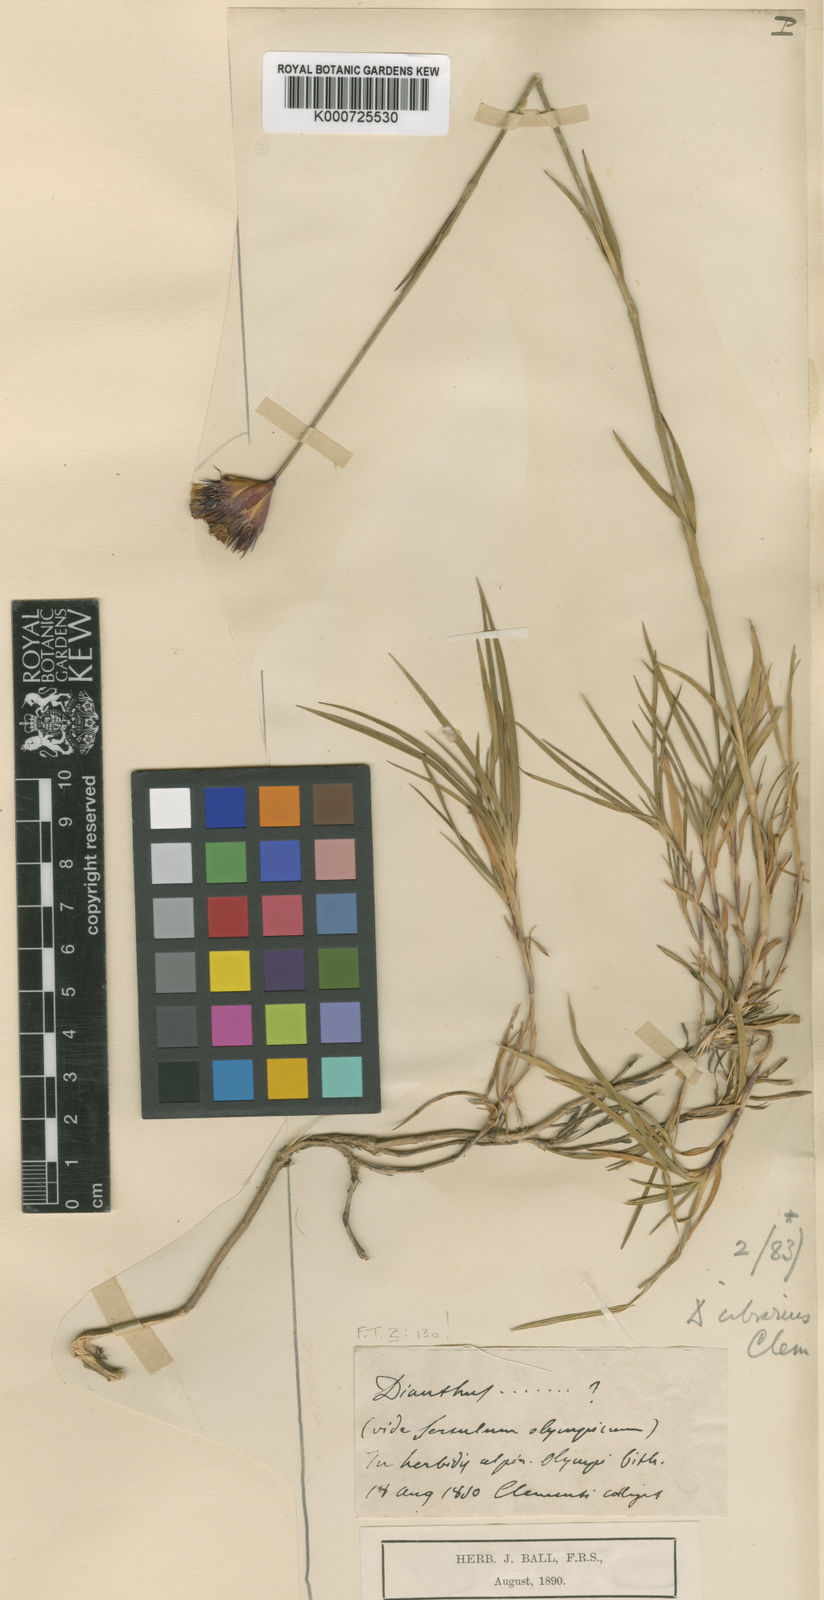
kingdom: Plantae
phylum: Tracheophyta
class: Magnoliopsida
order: Caryophyllales
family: Caryophyllaceae
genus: Dianthus
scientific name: Dianthus cibrarius
